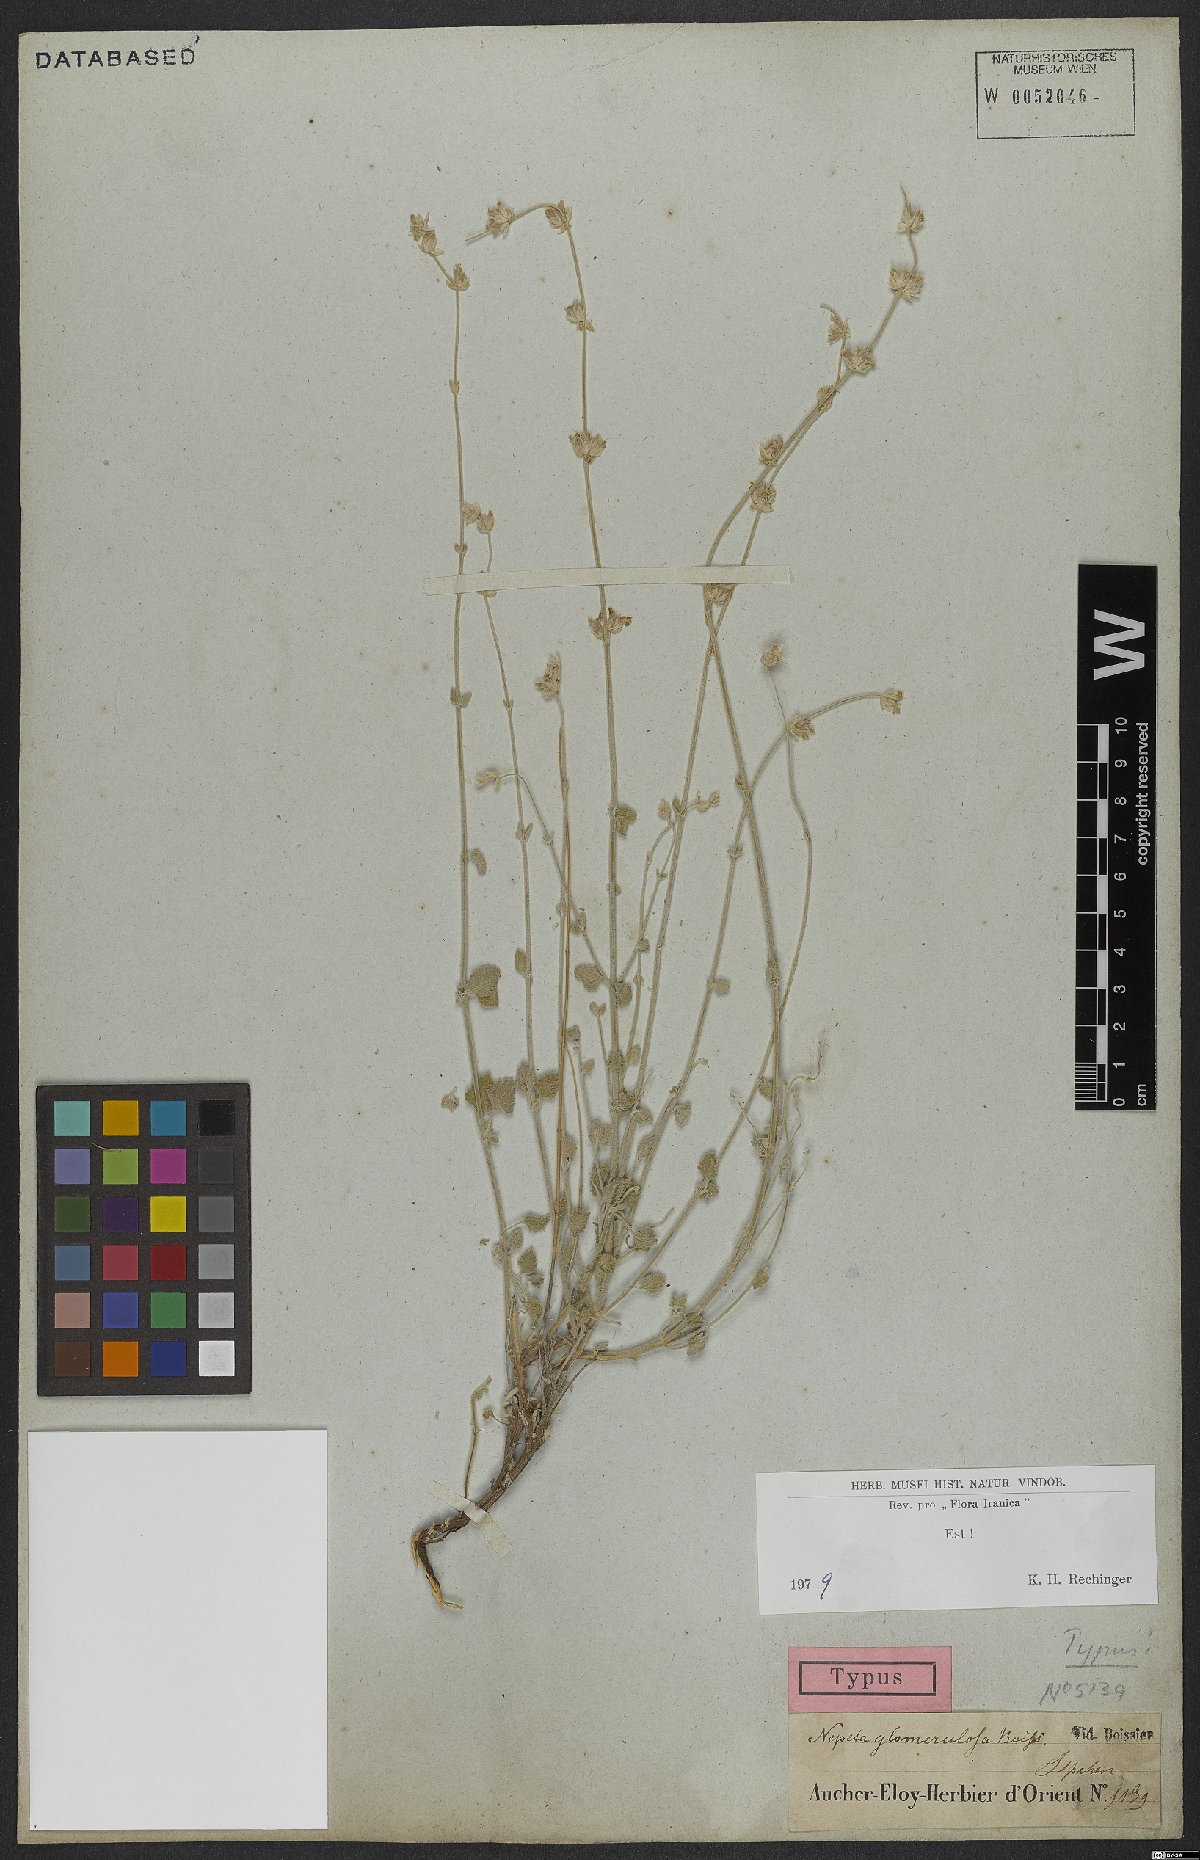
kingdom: Plantae
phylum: Tracheophyta
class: Magnoliopsida
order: Lamiales
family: Lamiaceae
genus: Nepeta
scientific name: Nepeta glomerulosa
